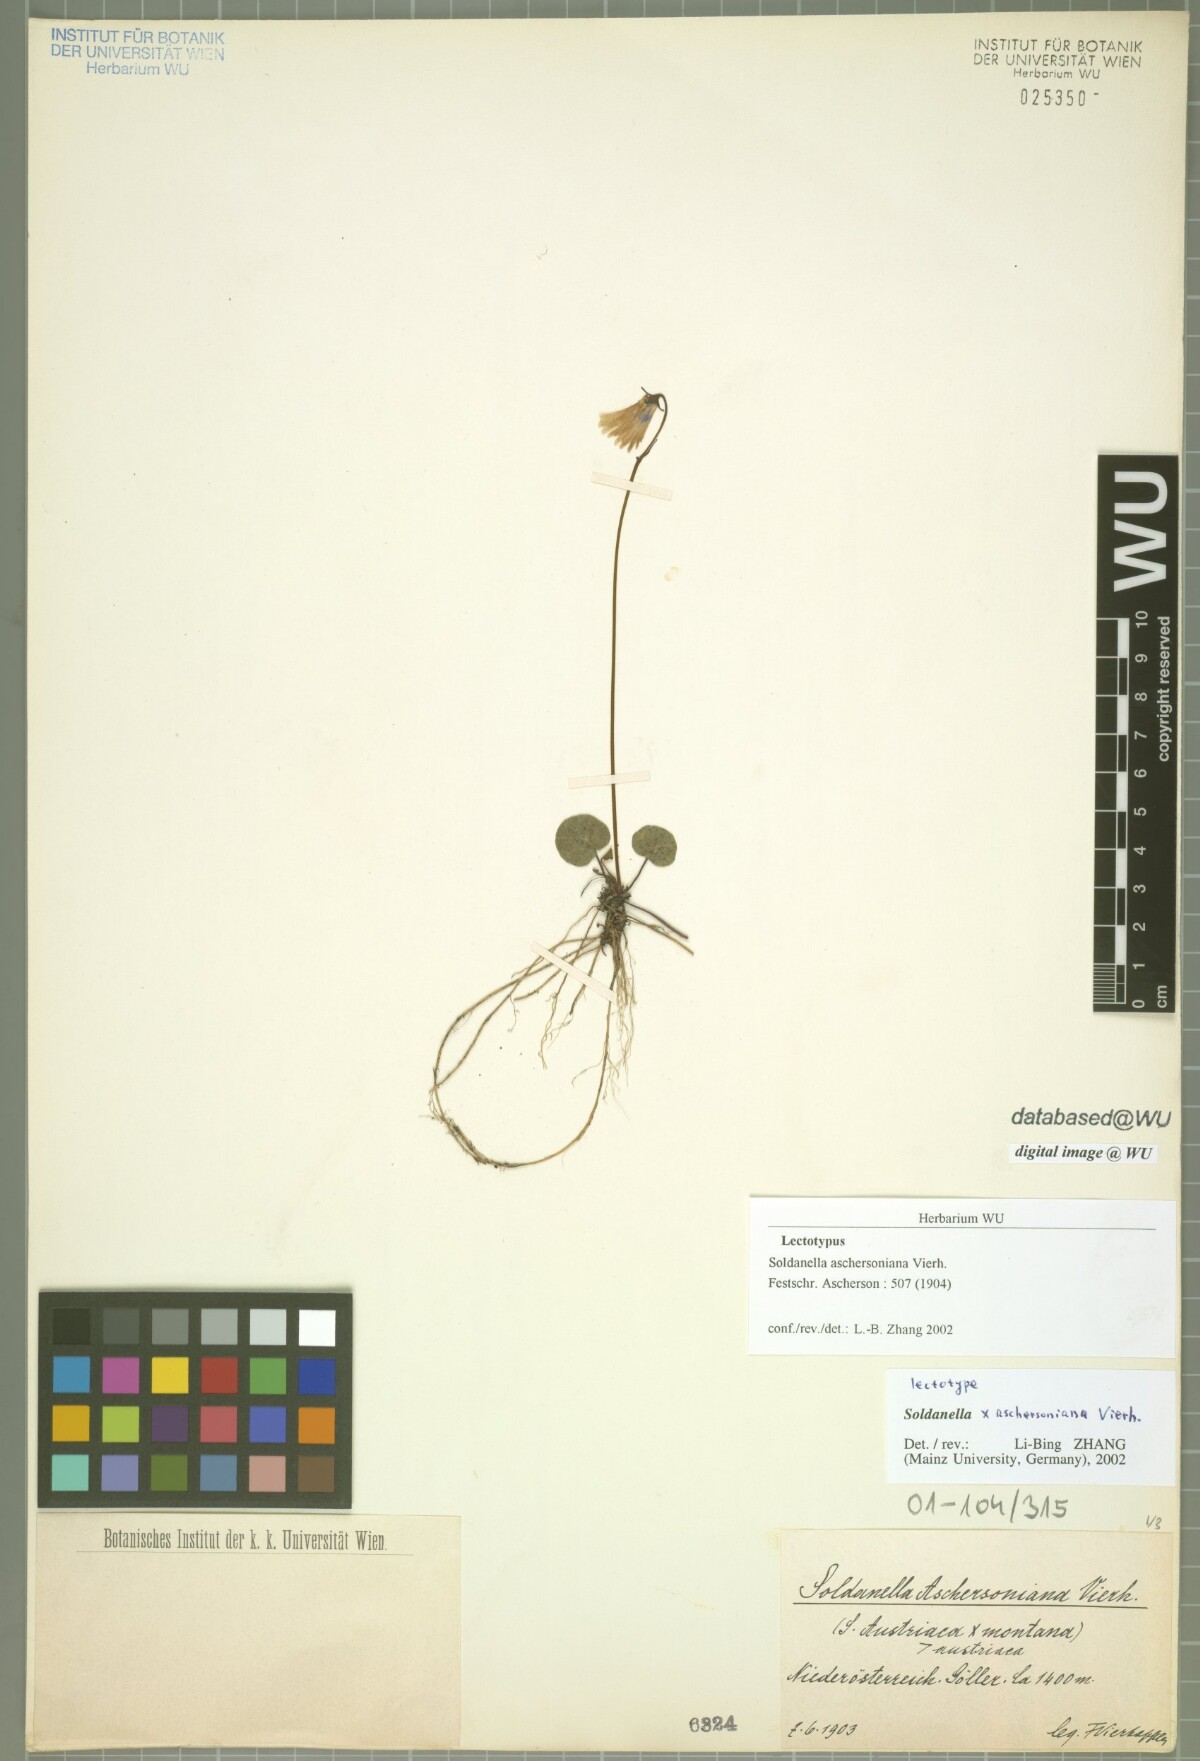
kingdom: Plantae
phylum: Tracheophyta
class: Magnoliopsida
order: Ericales
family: Primulaceae
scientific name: Primulaceae
